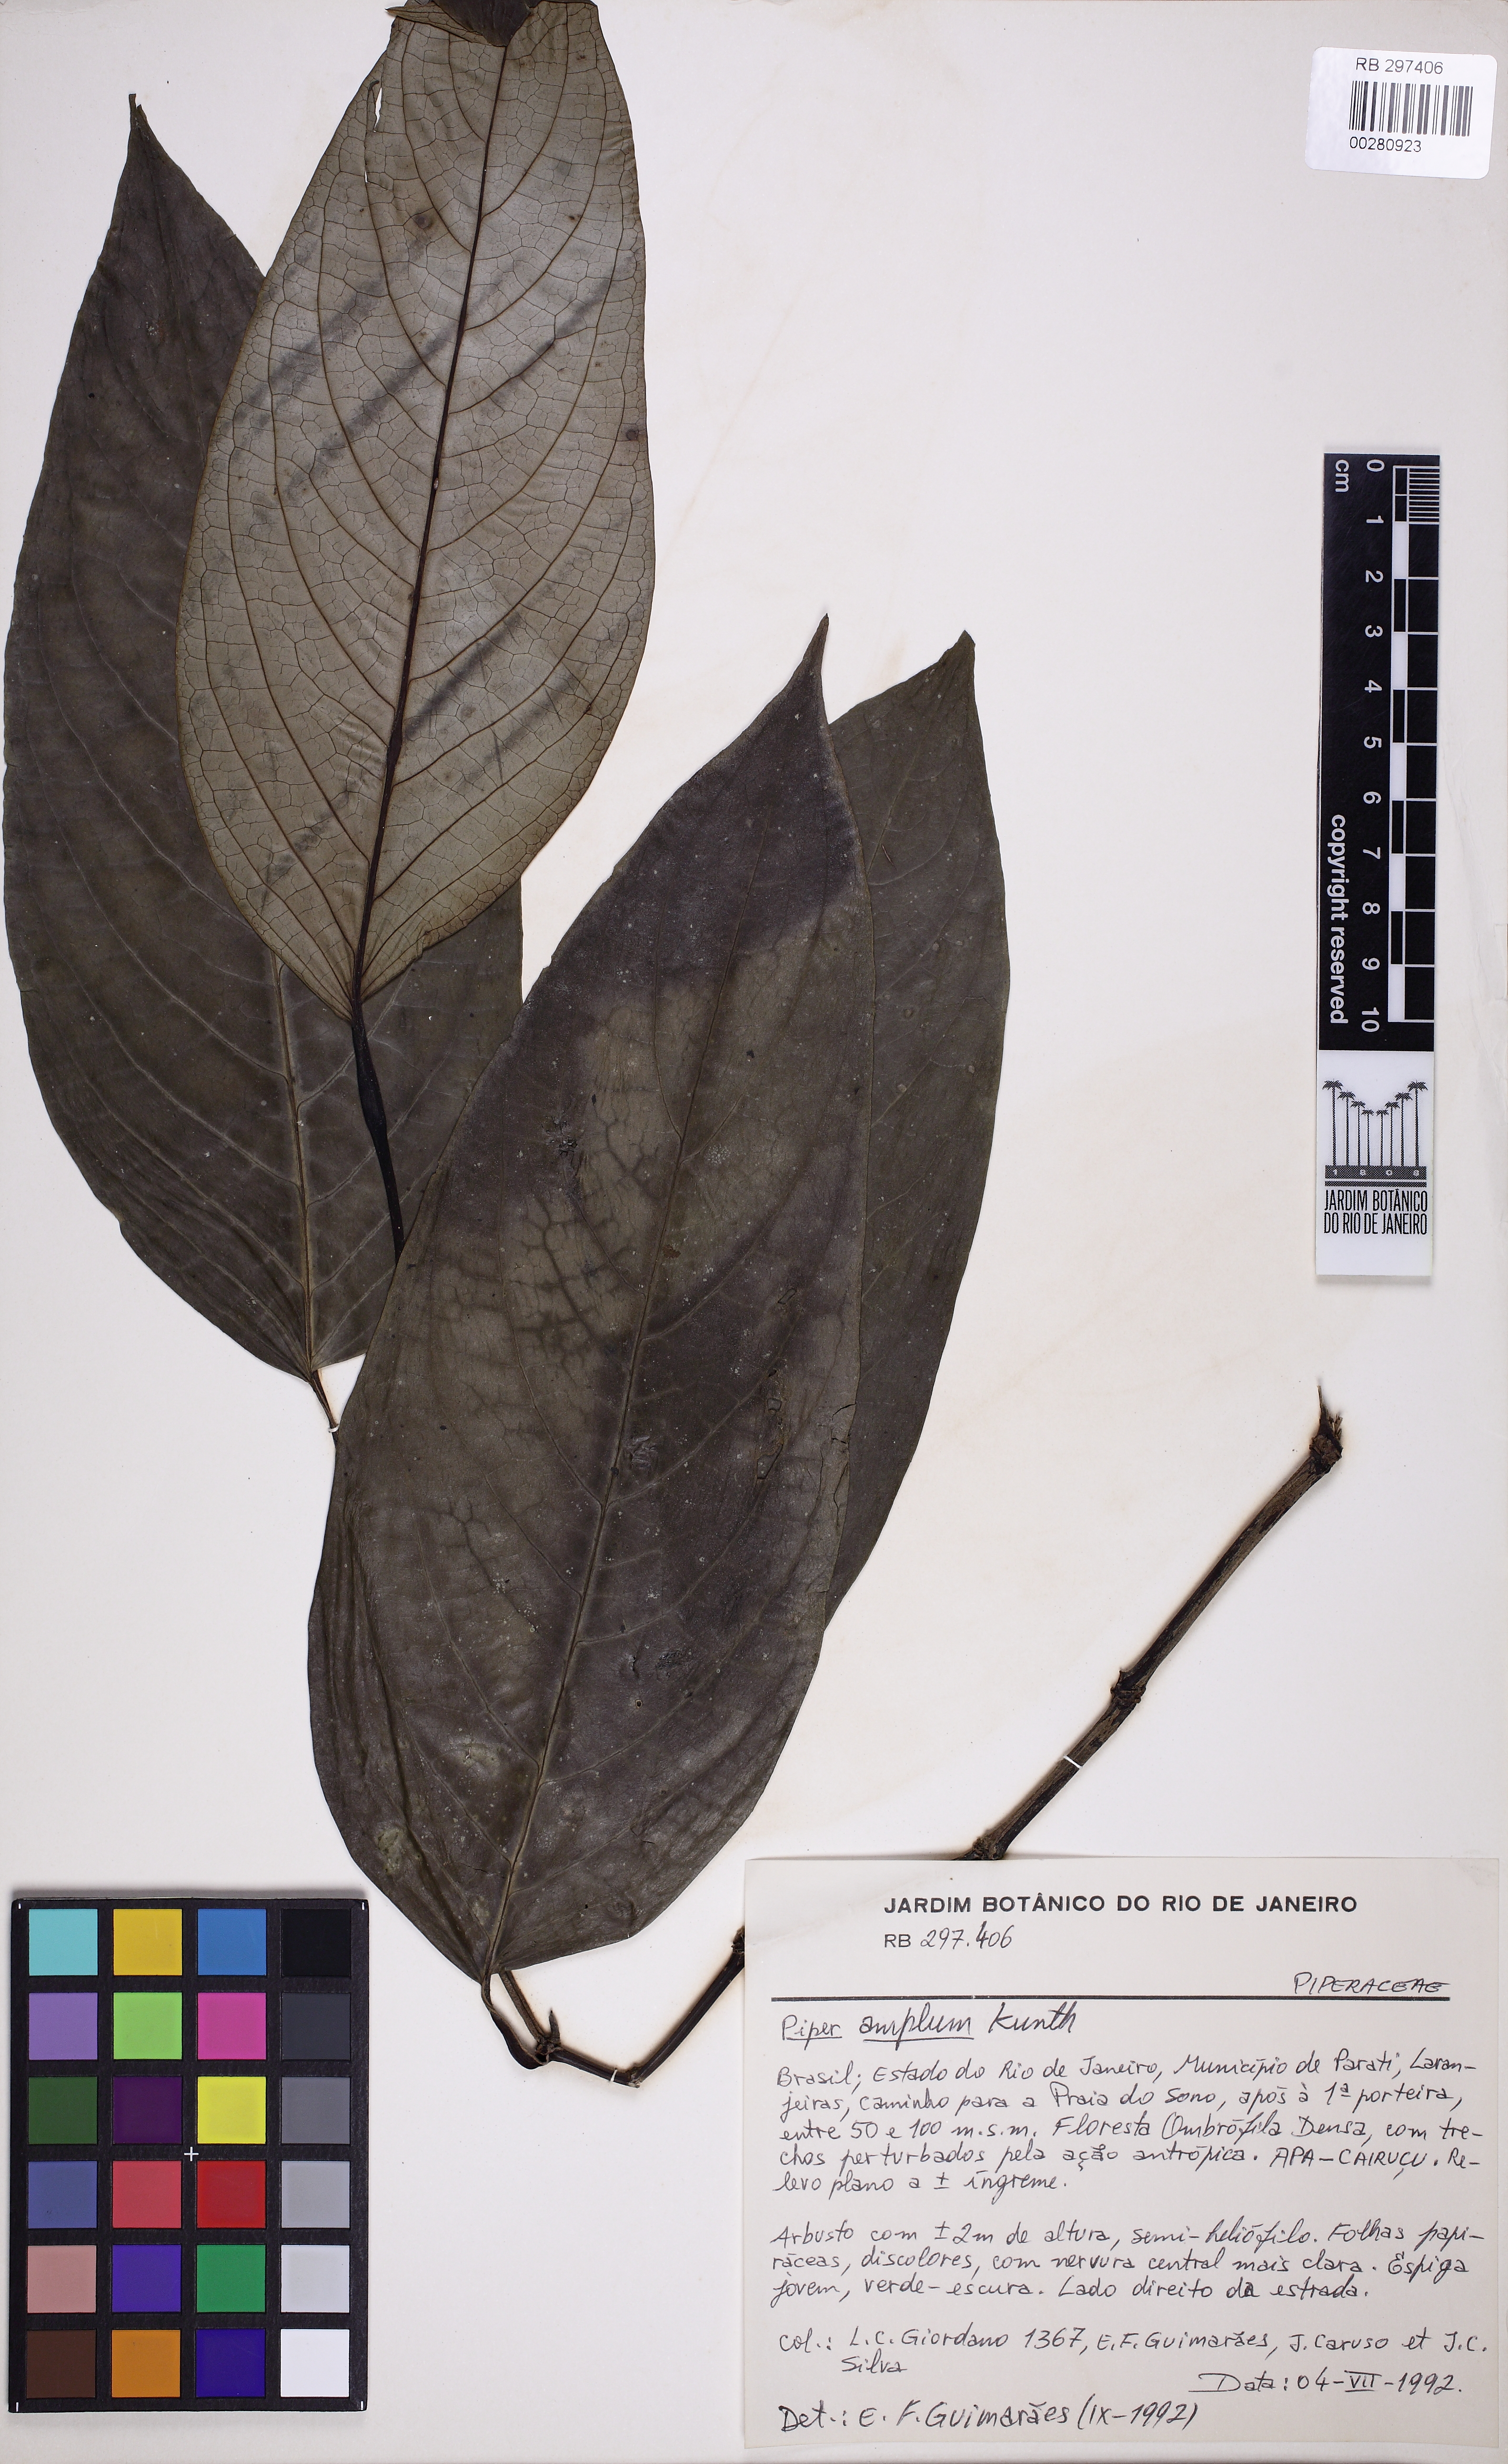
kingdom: Plantae
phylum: Tracheophyta
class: Magnoliopsida
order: Piperales
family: Piperaceae
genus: Piper
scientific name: Piper fluminense
